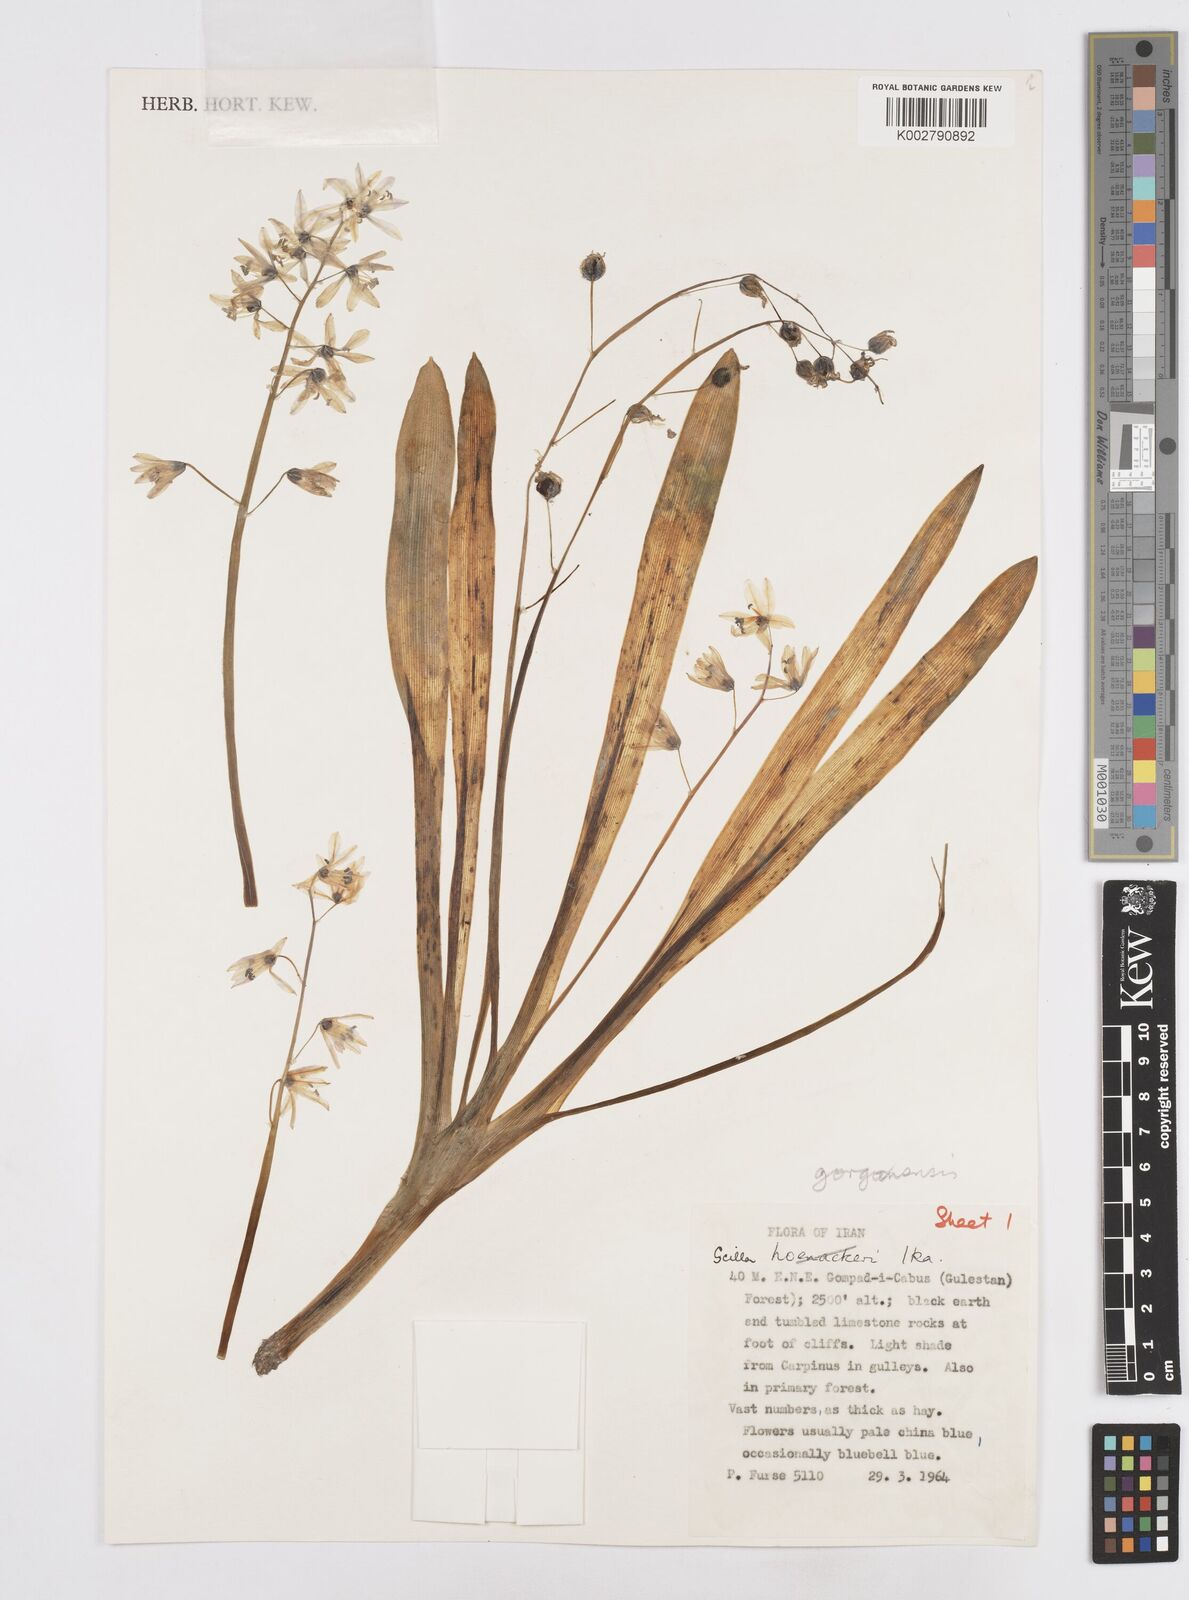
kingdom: Plantae
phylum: Tracheophyta
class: Liliopsida
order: Asparagales
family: Asparagaceae
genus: Fessia
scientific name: Fessia gorganica
